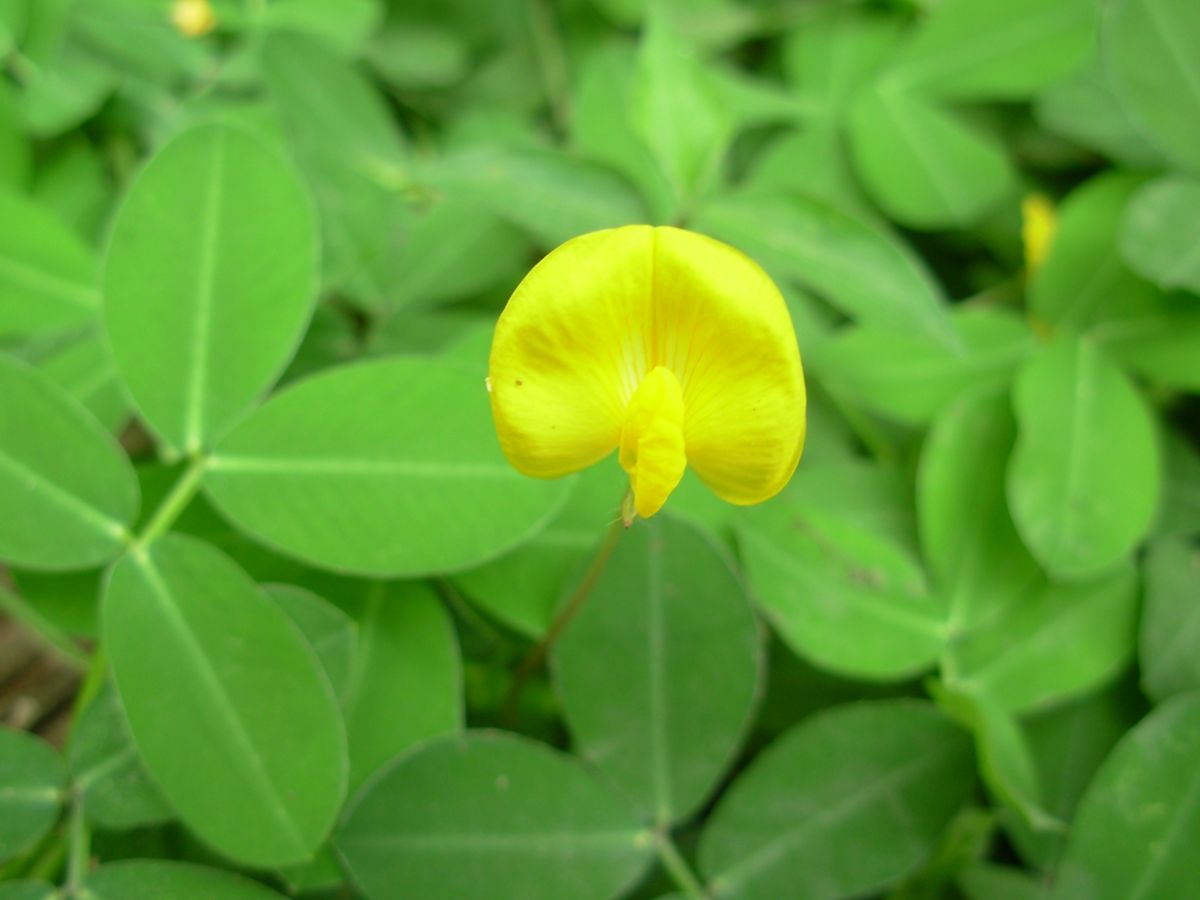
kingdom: Plantae
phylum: Tracheophyta
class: Magnoliopsida
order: Fabales
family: Fabaceae
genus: Arachis
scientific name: Arachis pintoi
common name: Pinto peanut
